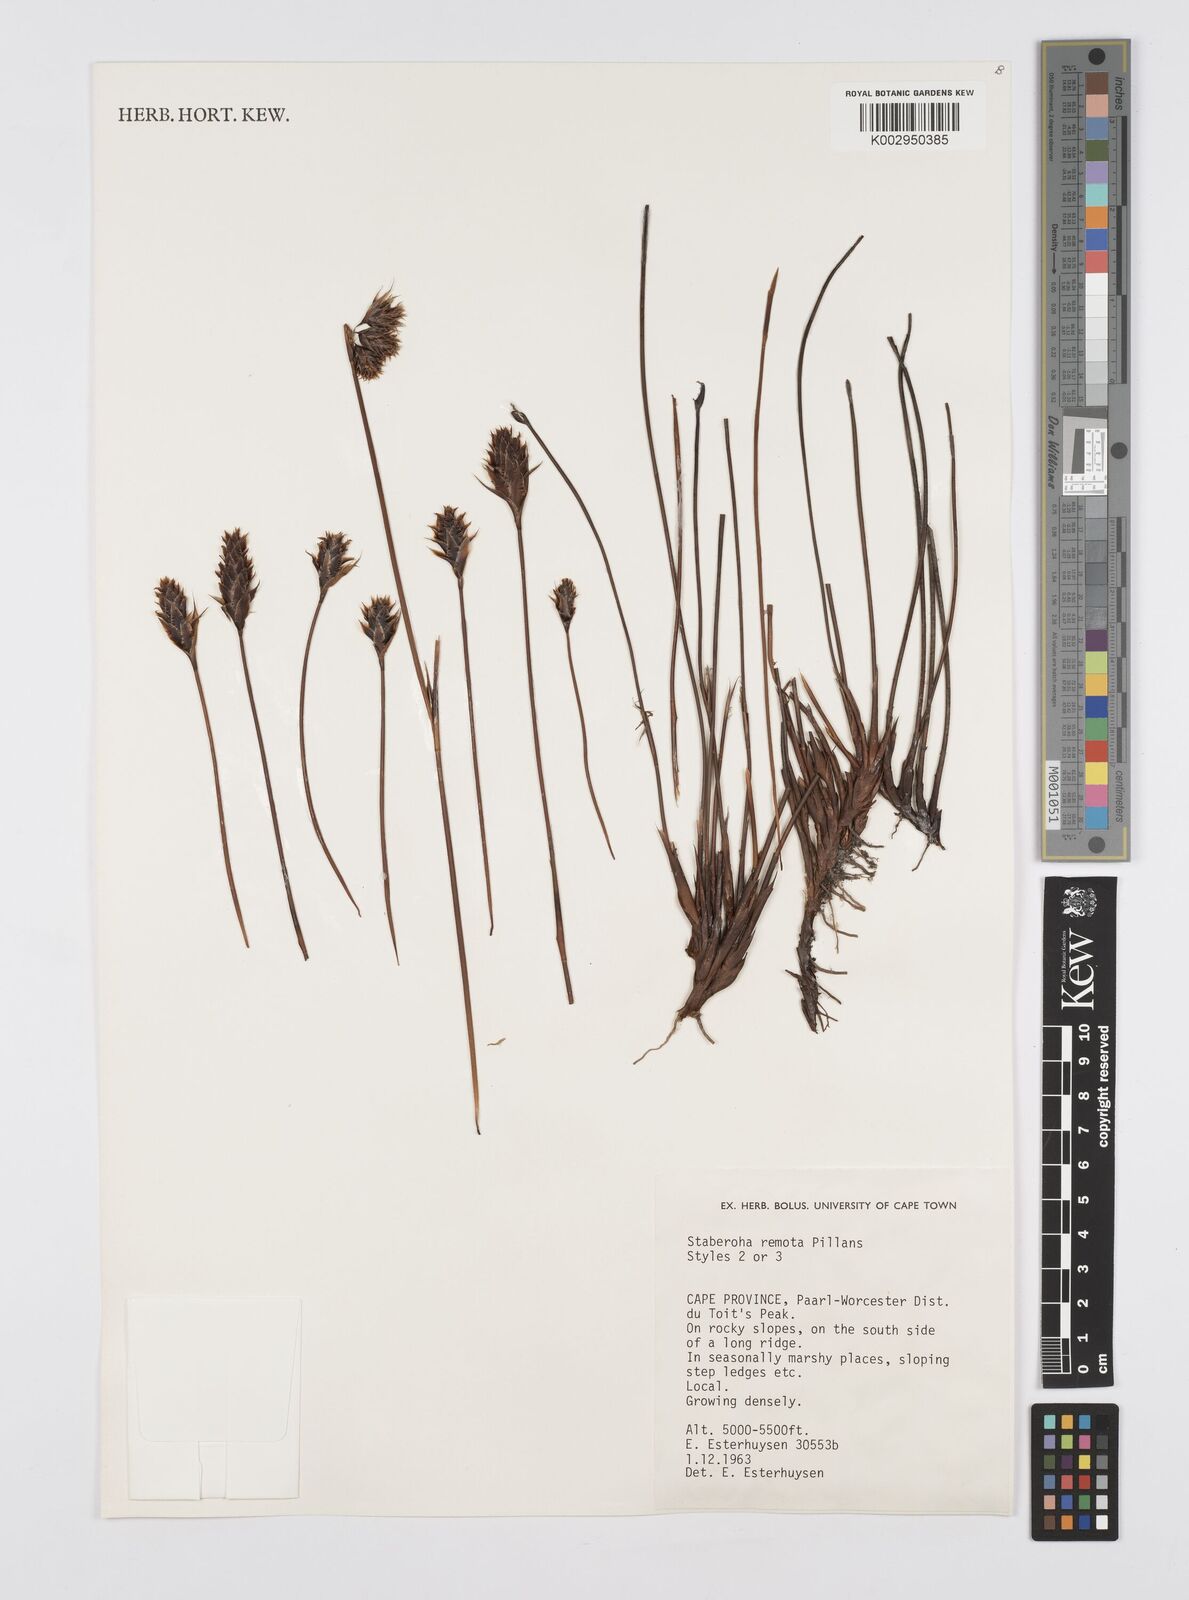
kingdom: Plantae
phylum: Tracheophyta
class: Liliopsida
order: Poales
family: Restionaceae
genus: Staberoha
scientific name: Staberoha remota
